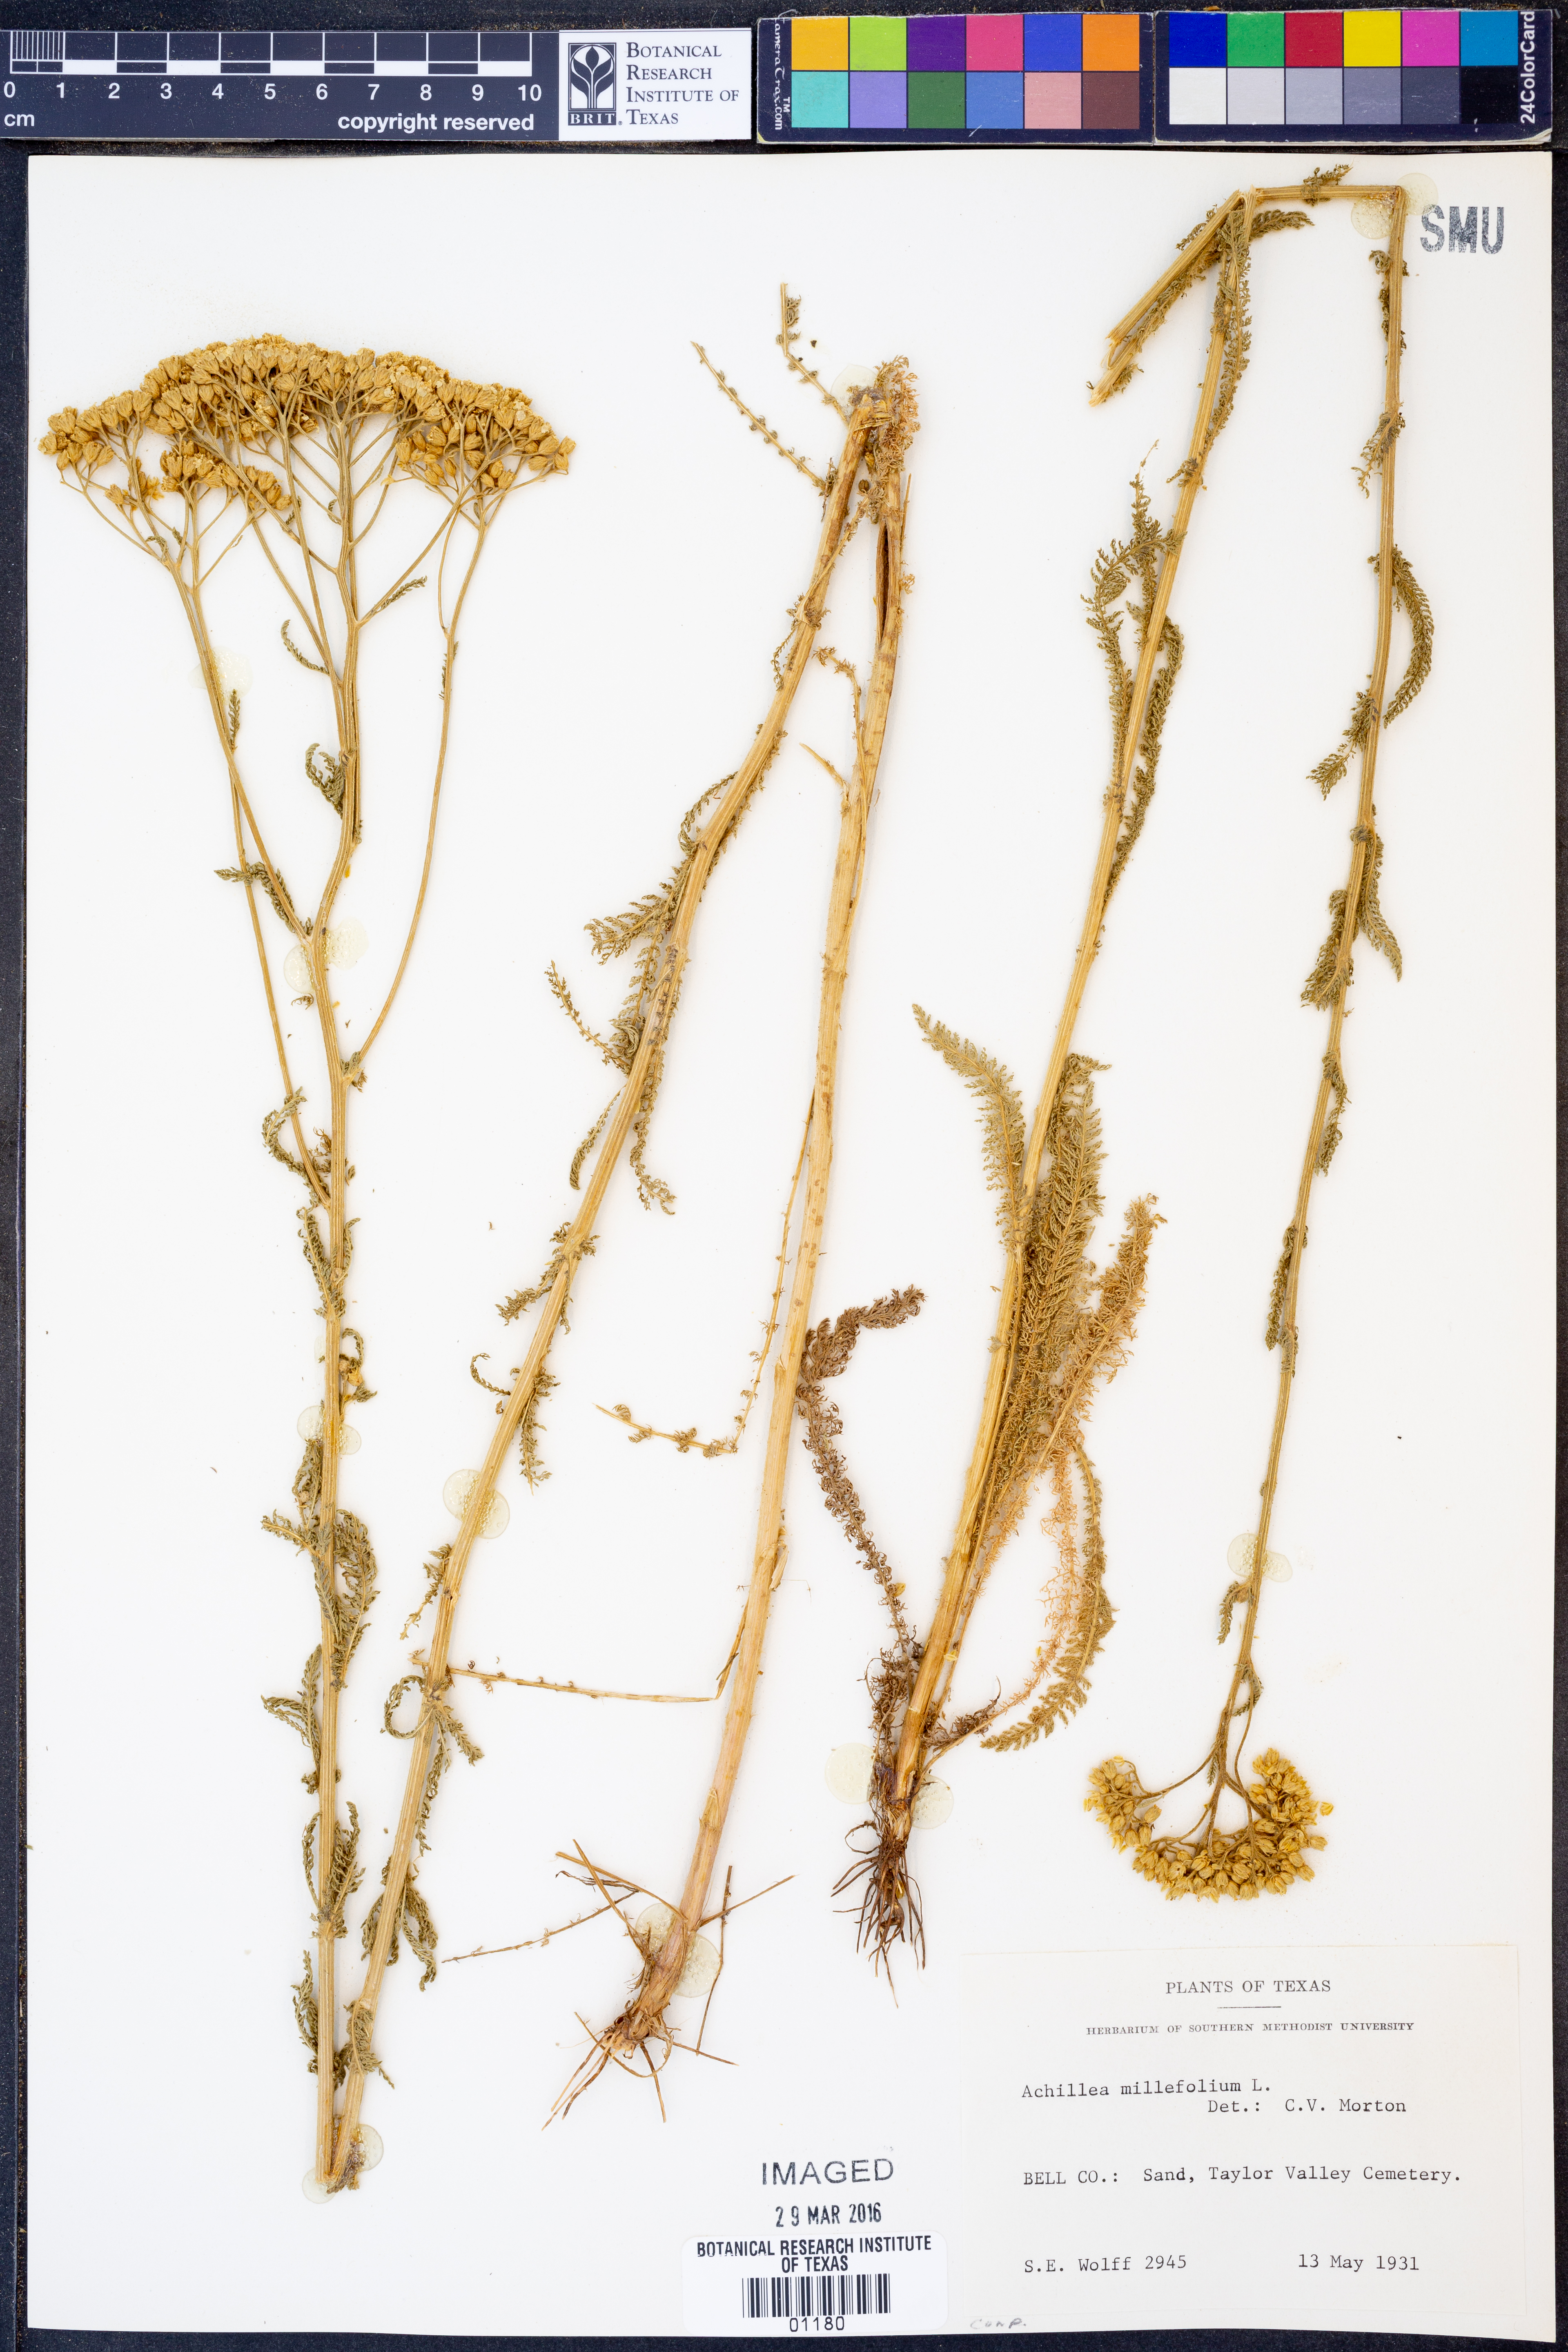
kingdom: Plantae
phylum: Tracheophyta
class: Magnoliopsida
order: Asterales
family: Asteraceae
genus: Achillea
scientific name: Achillea millefolium
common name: Yarrow
